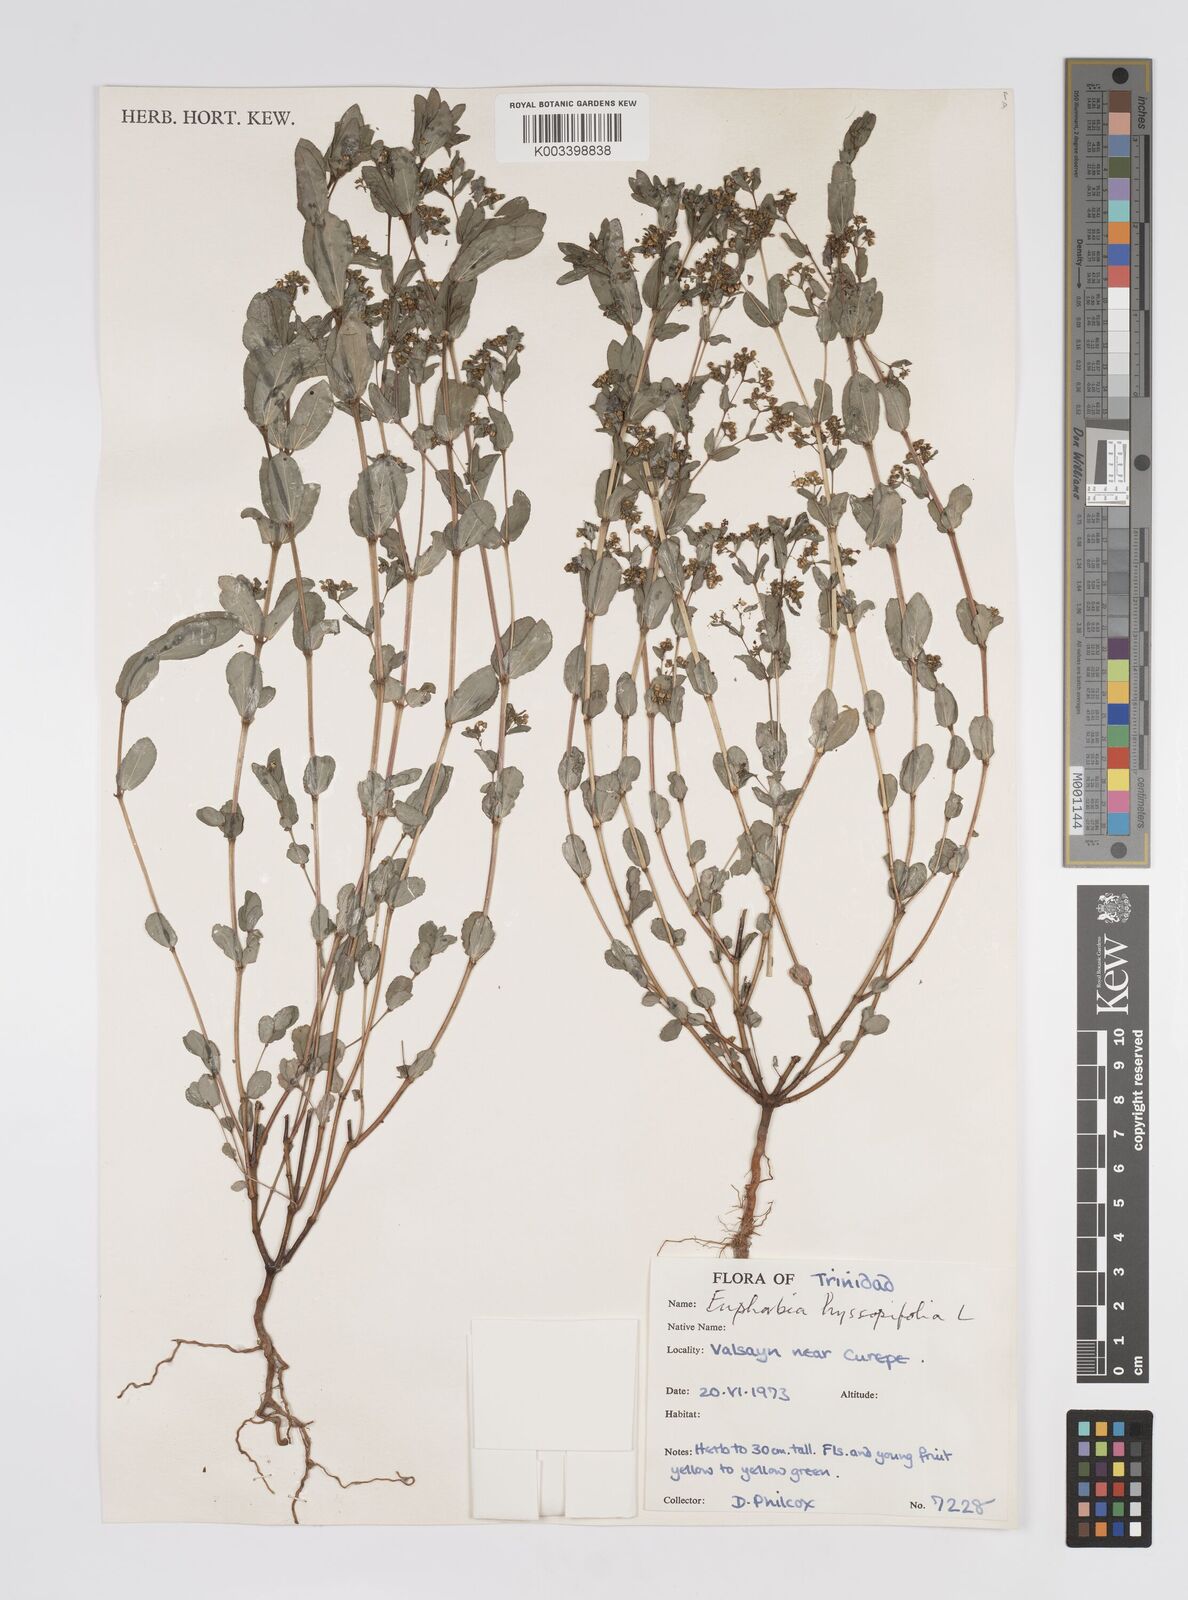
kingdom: Plantae
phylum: Tracheophyta
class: Magnoliopsida
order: Malpighiales
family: Euphorbiaceae
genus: Euphorbia
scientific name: Euphorbia hyssopifolia
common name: Hyssopleaf sandmat
